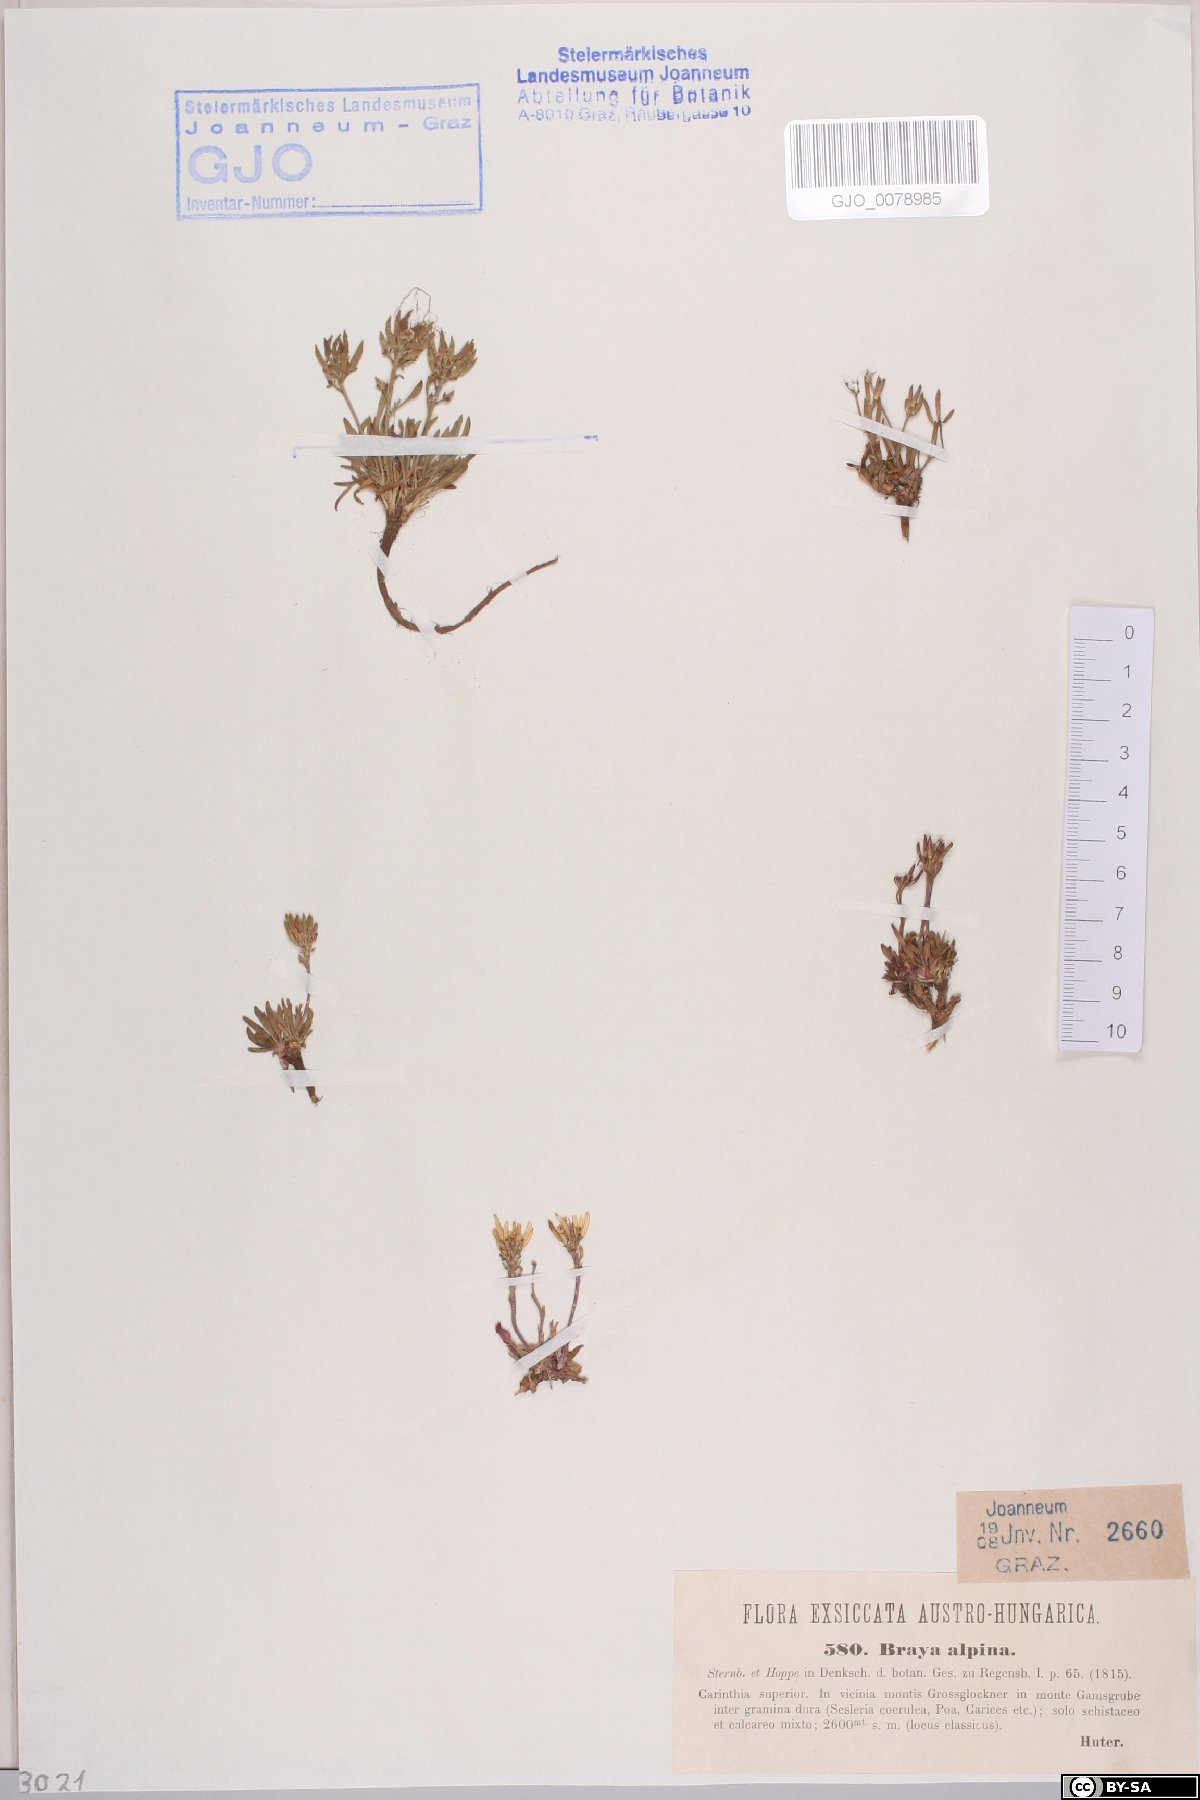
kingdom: Plantae
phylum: Tracheophyta
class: Magnoliopsida
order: Brassicales
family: Brassicaceae
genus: Braya
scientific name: Braya alpina
